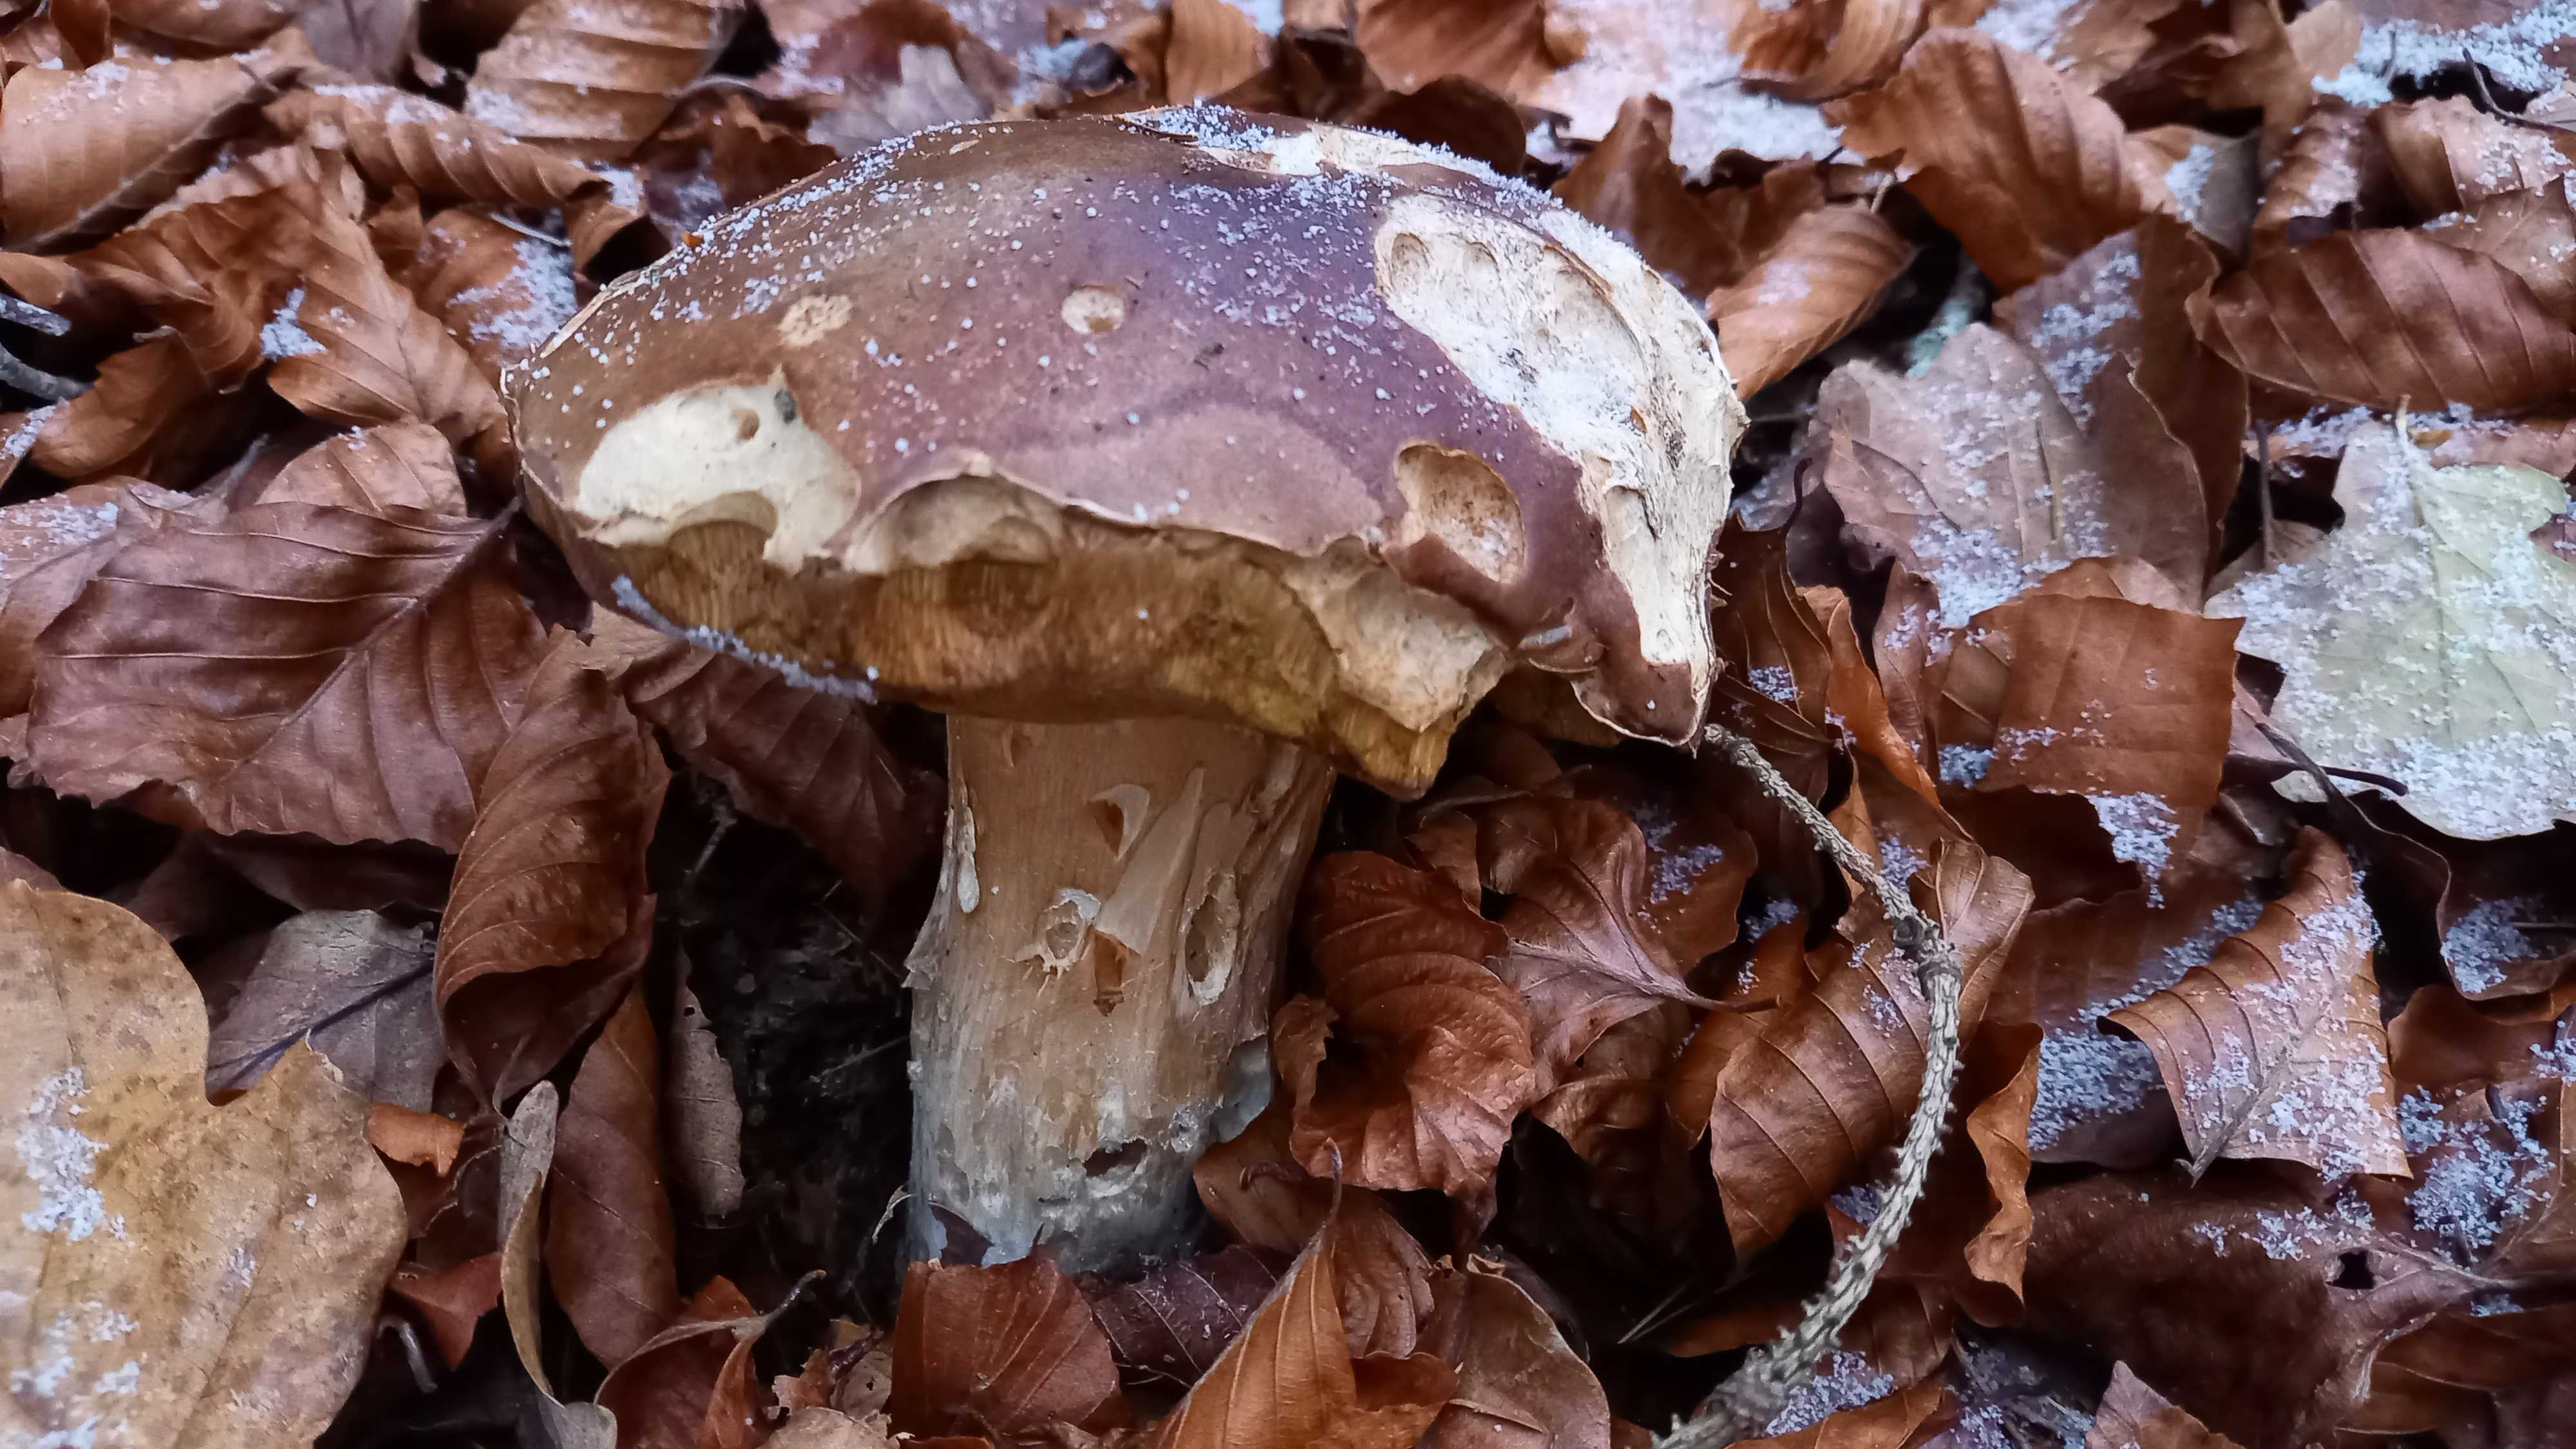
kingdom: Fungi
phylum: Basidiomycota
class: Agaricomycetes
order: Boletales
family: Boletaceae
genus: Boletus
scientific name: Boletus edulis
